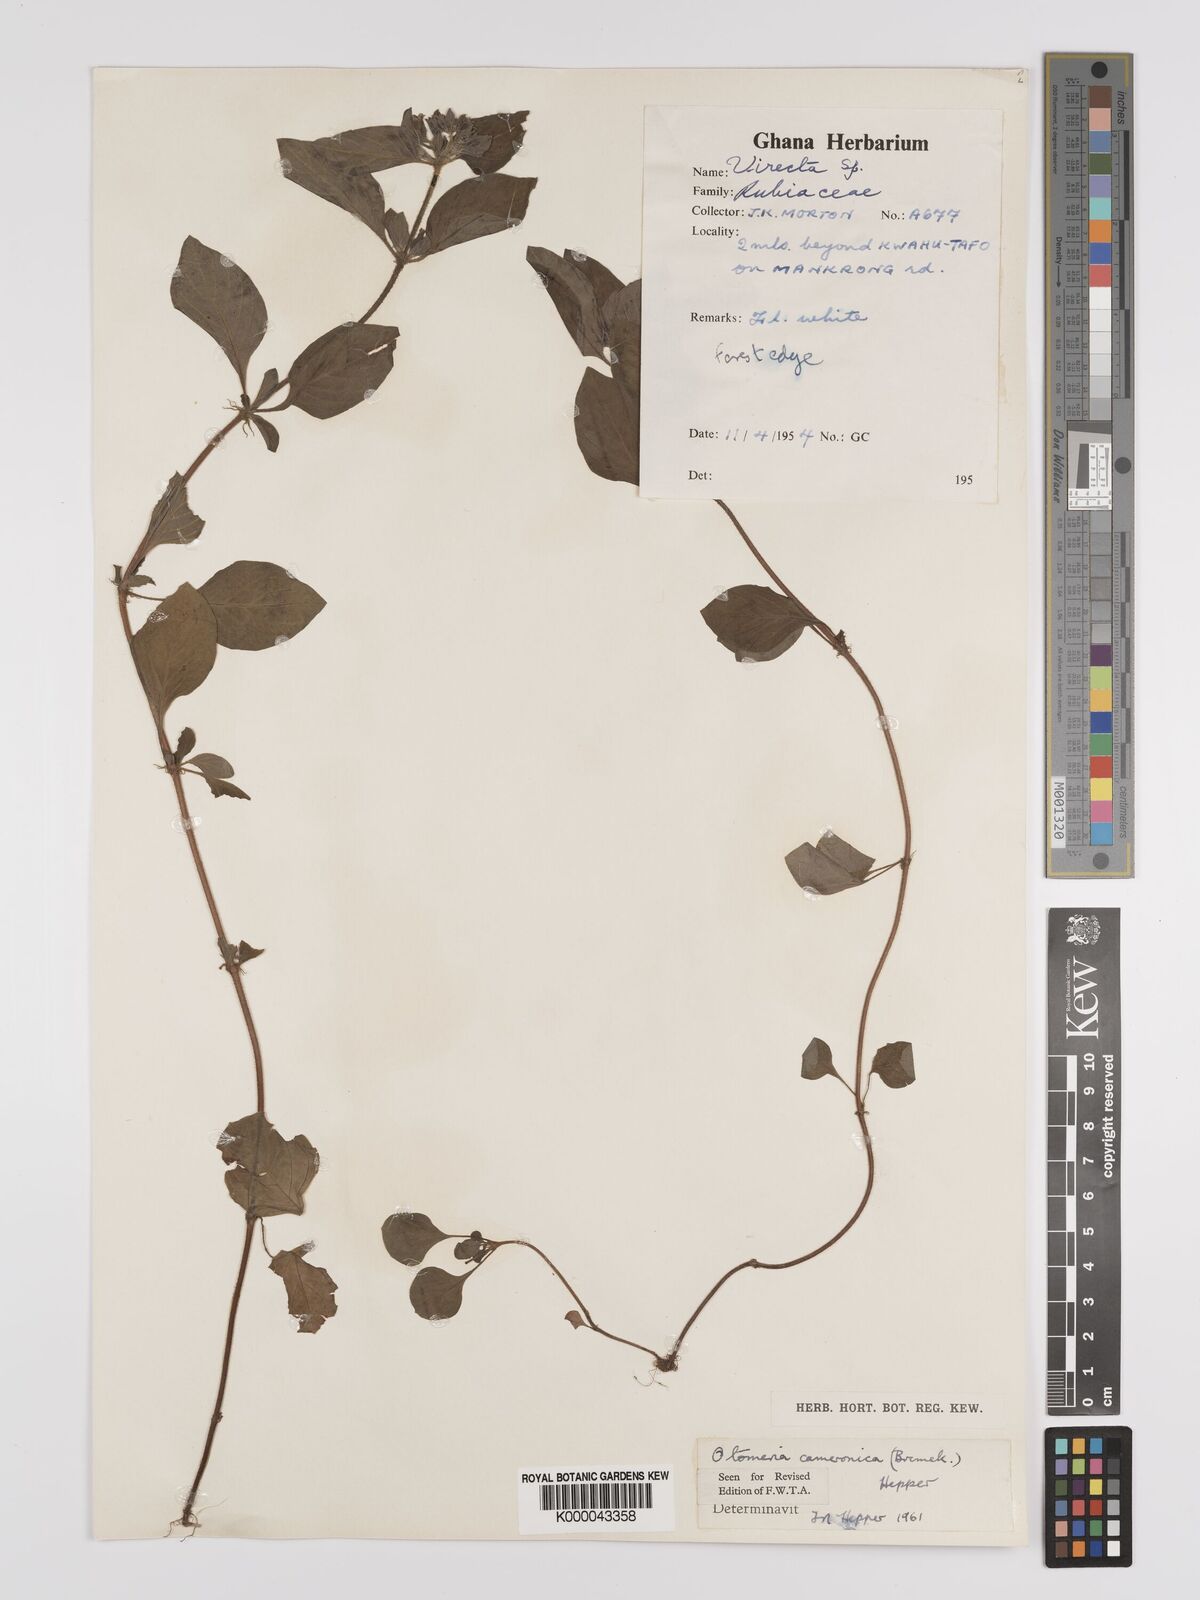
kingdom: Plantae
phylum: Tracheophyta
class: Magnoliopsida
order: Gentianales
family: Rubiaceae
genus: Otomeria
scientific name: Otomeria cameronica
